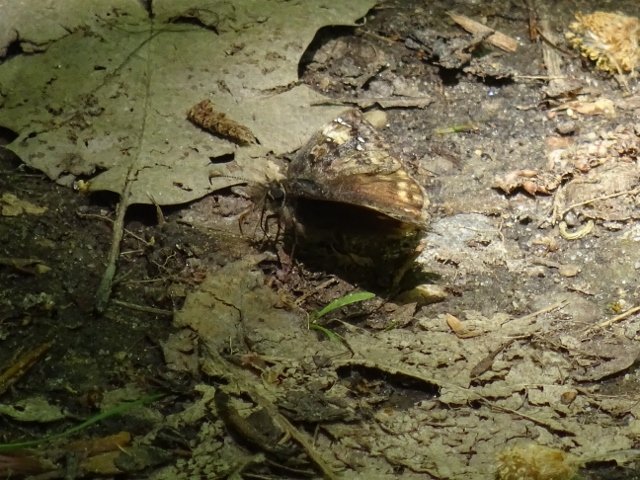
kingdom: Animalia
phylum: Arthropoda
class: Insecta
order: Lepidoptera
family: Hesperiidae
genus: Gesta
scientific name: Gesta
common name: Juvenal's Duskywing
